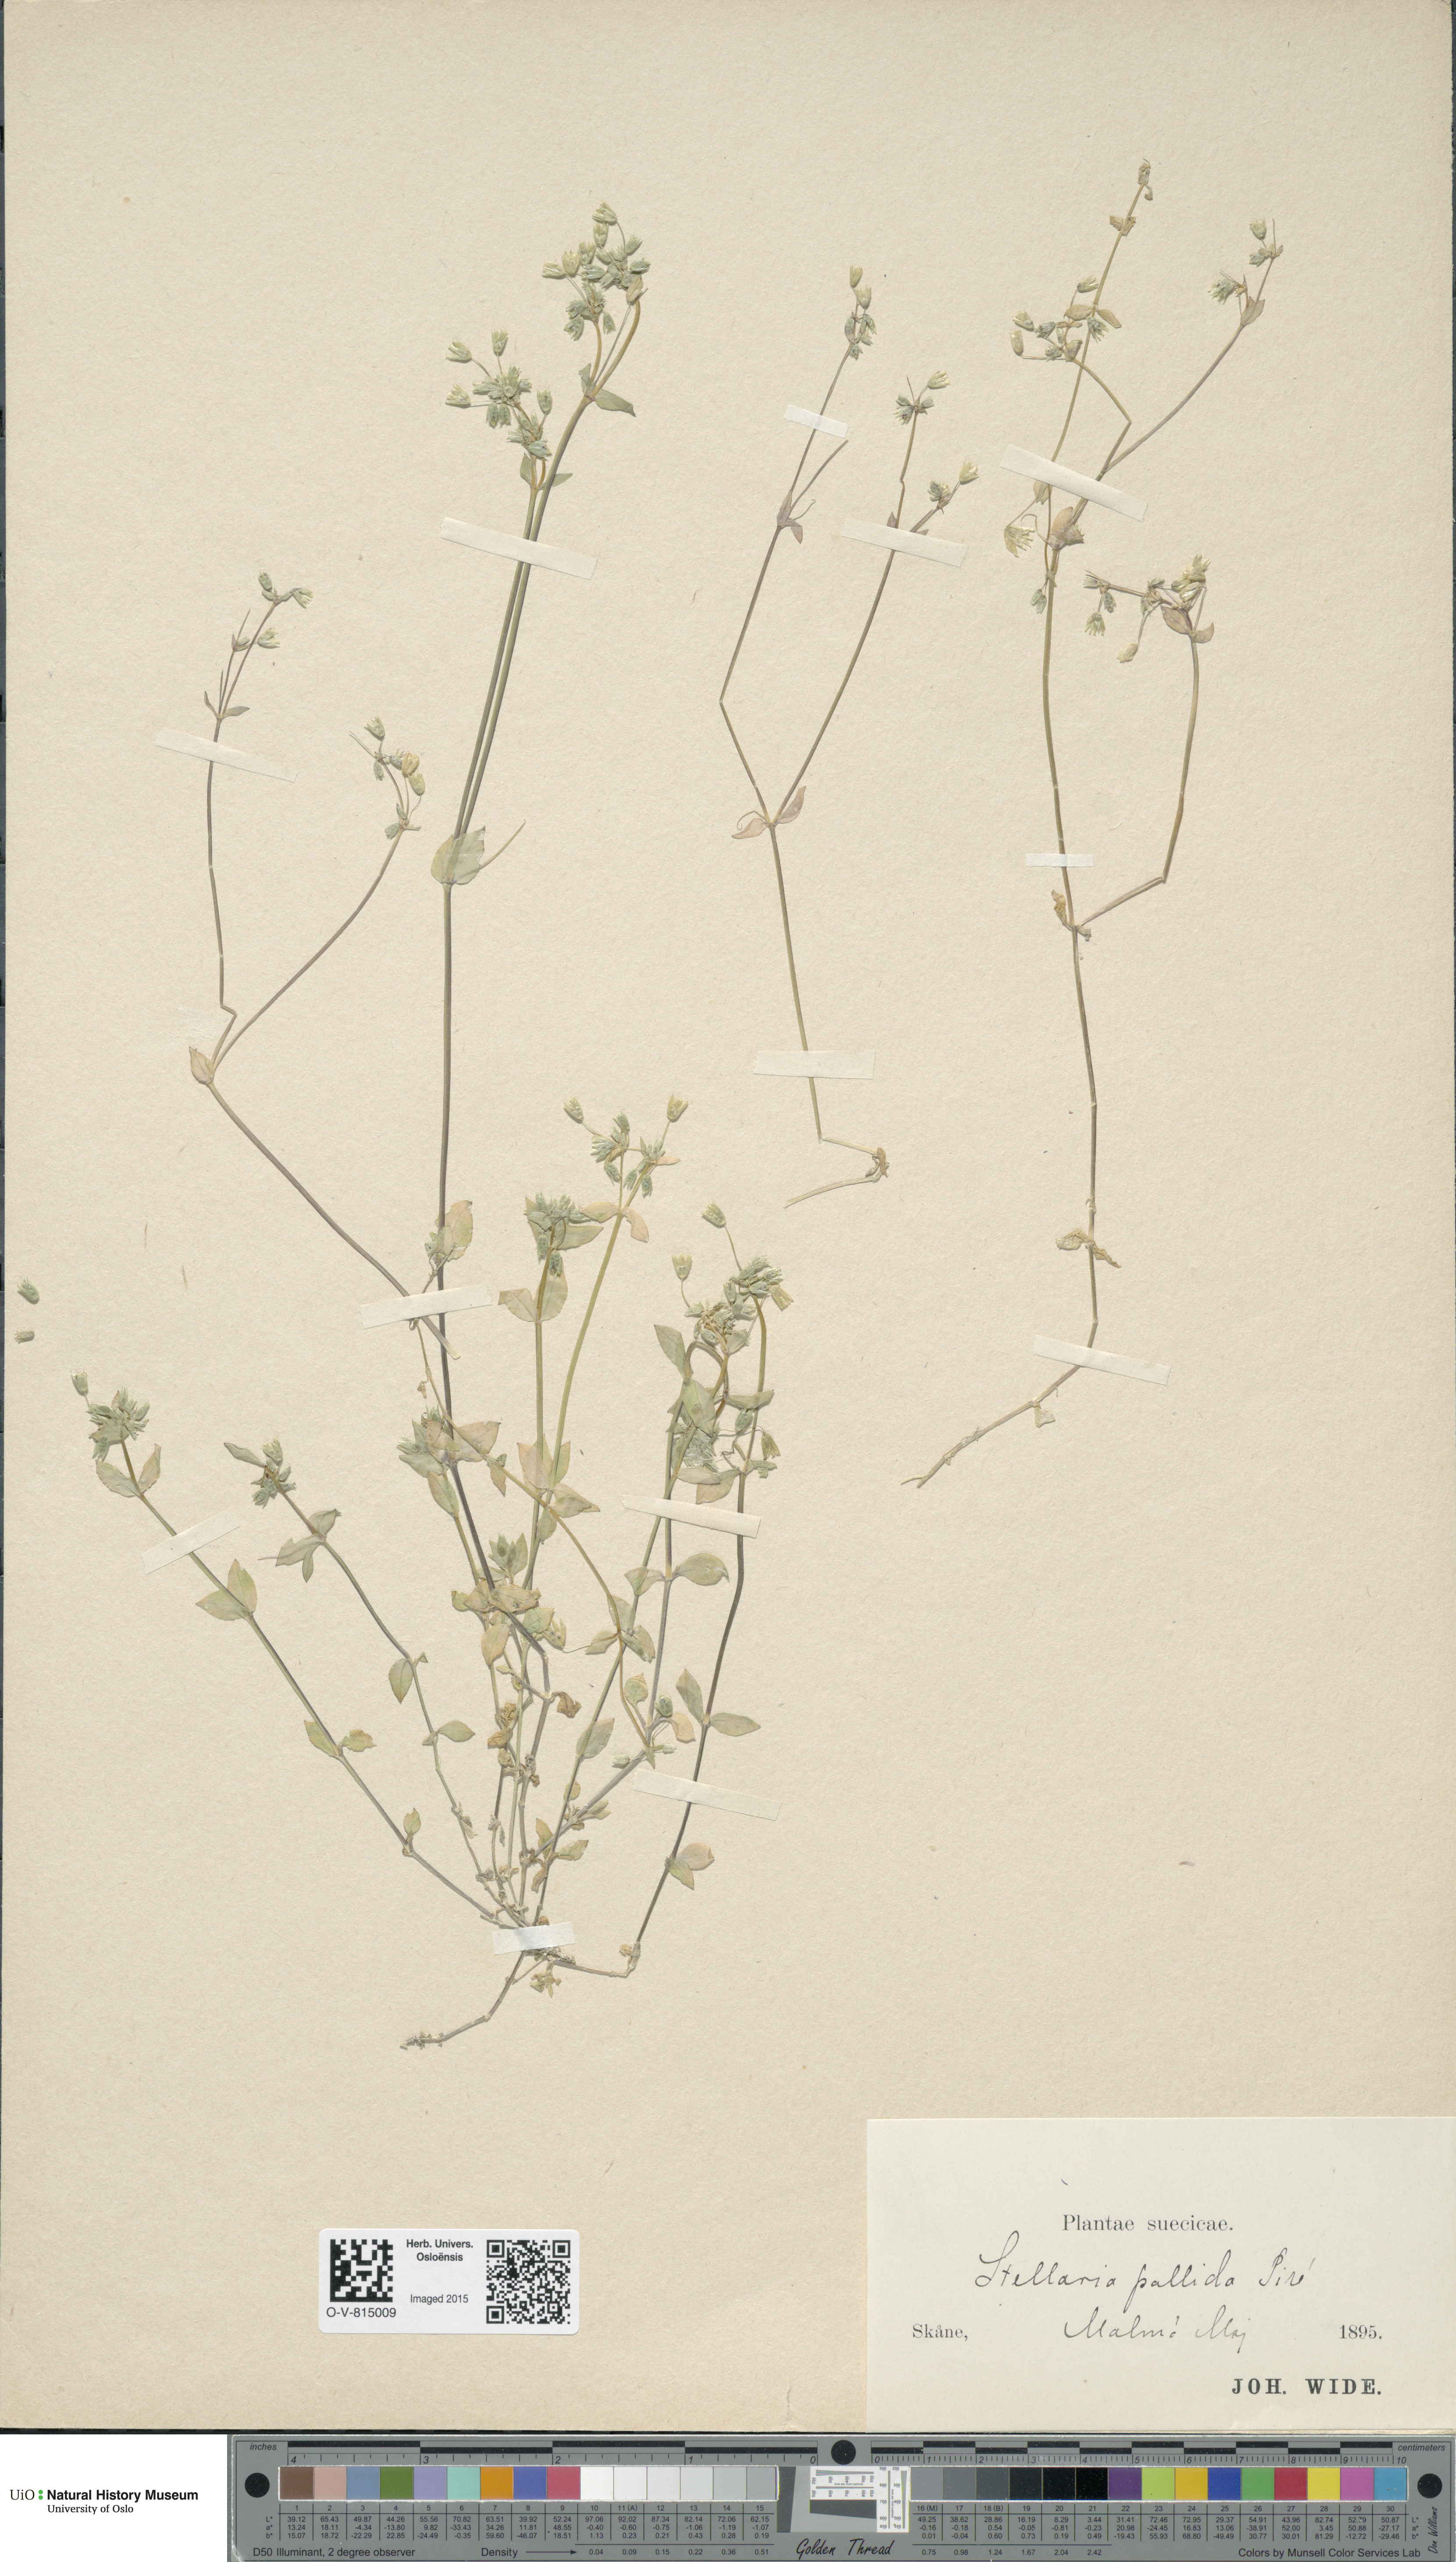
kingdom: Plantae
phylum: Tracheophyta
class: Magnoliopsida
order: Caryophyllales
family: Caryophyllaceae
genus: Stellaria
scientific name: Stellaria apetala
